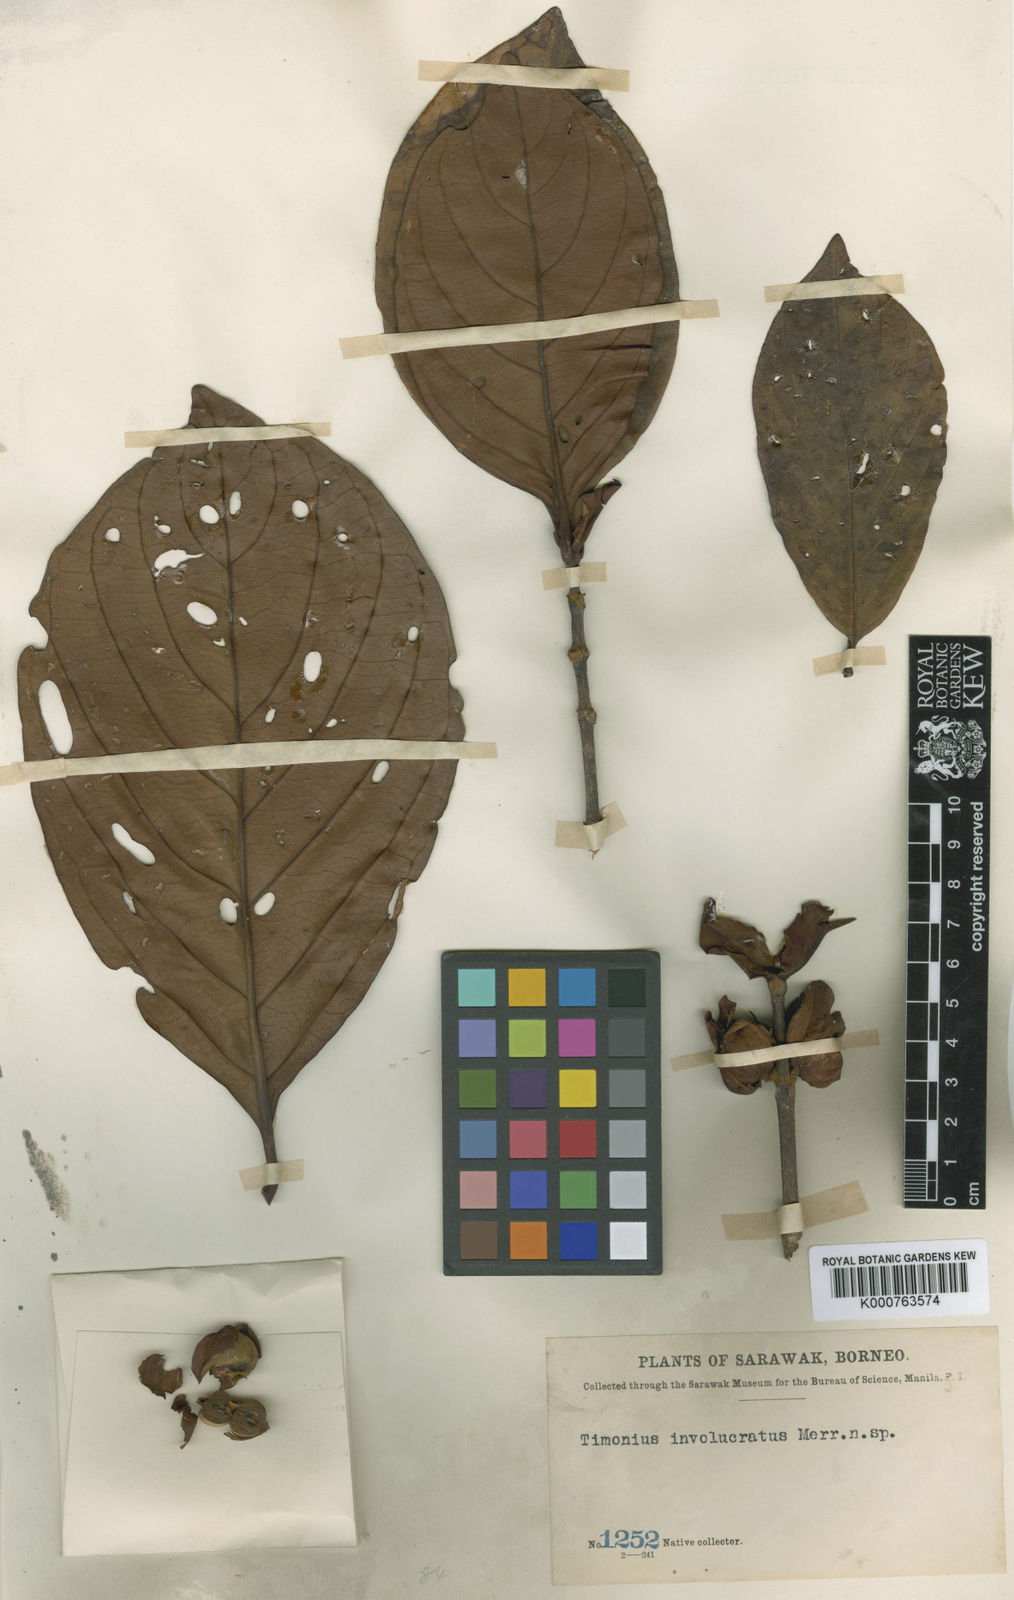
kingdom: Plantae
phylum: Tracheophyta
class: Magnoliopsida
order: Gentianales
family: Rubiaceae
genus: Timonius
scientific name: Timonius involucratus
